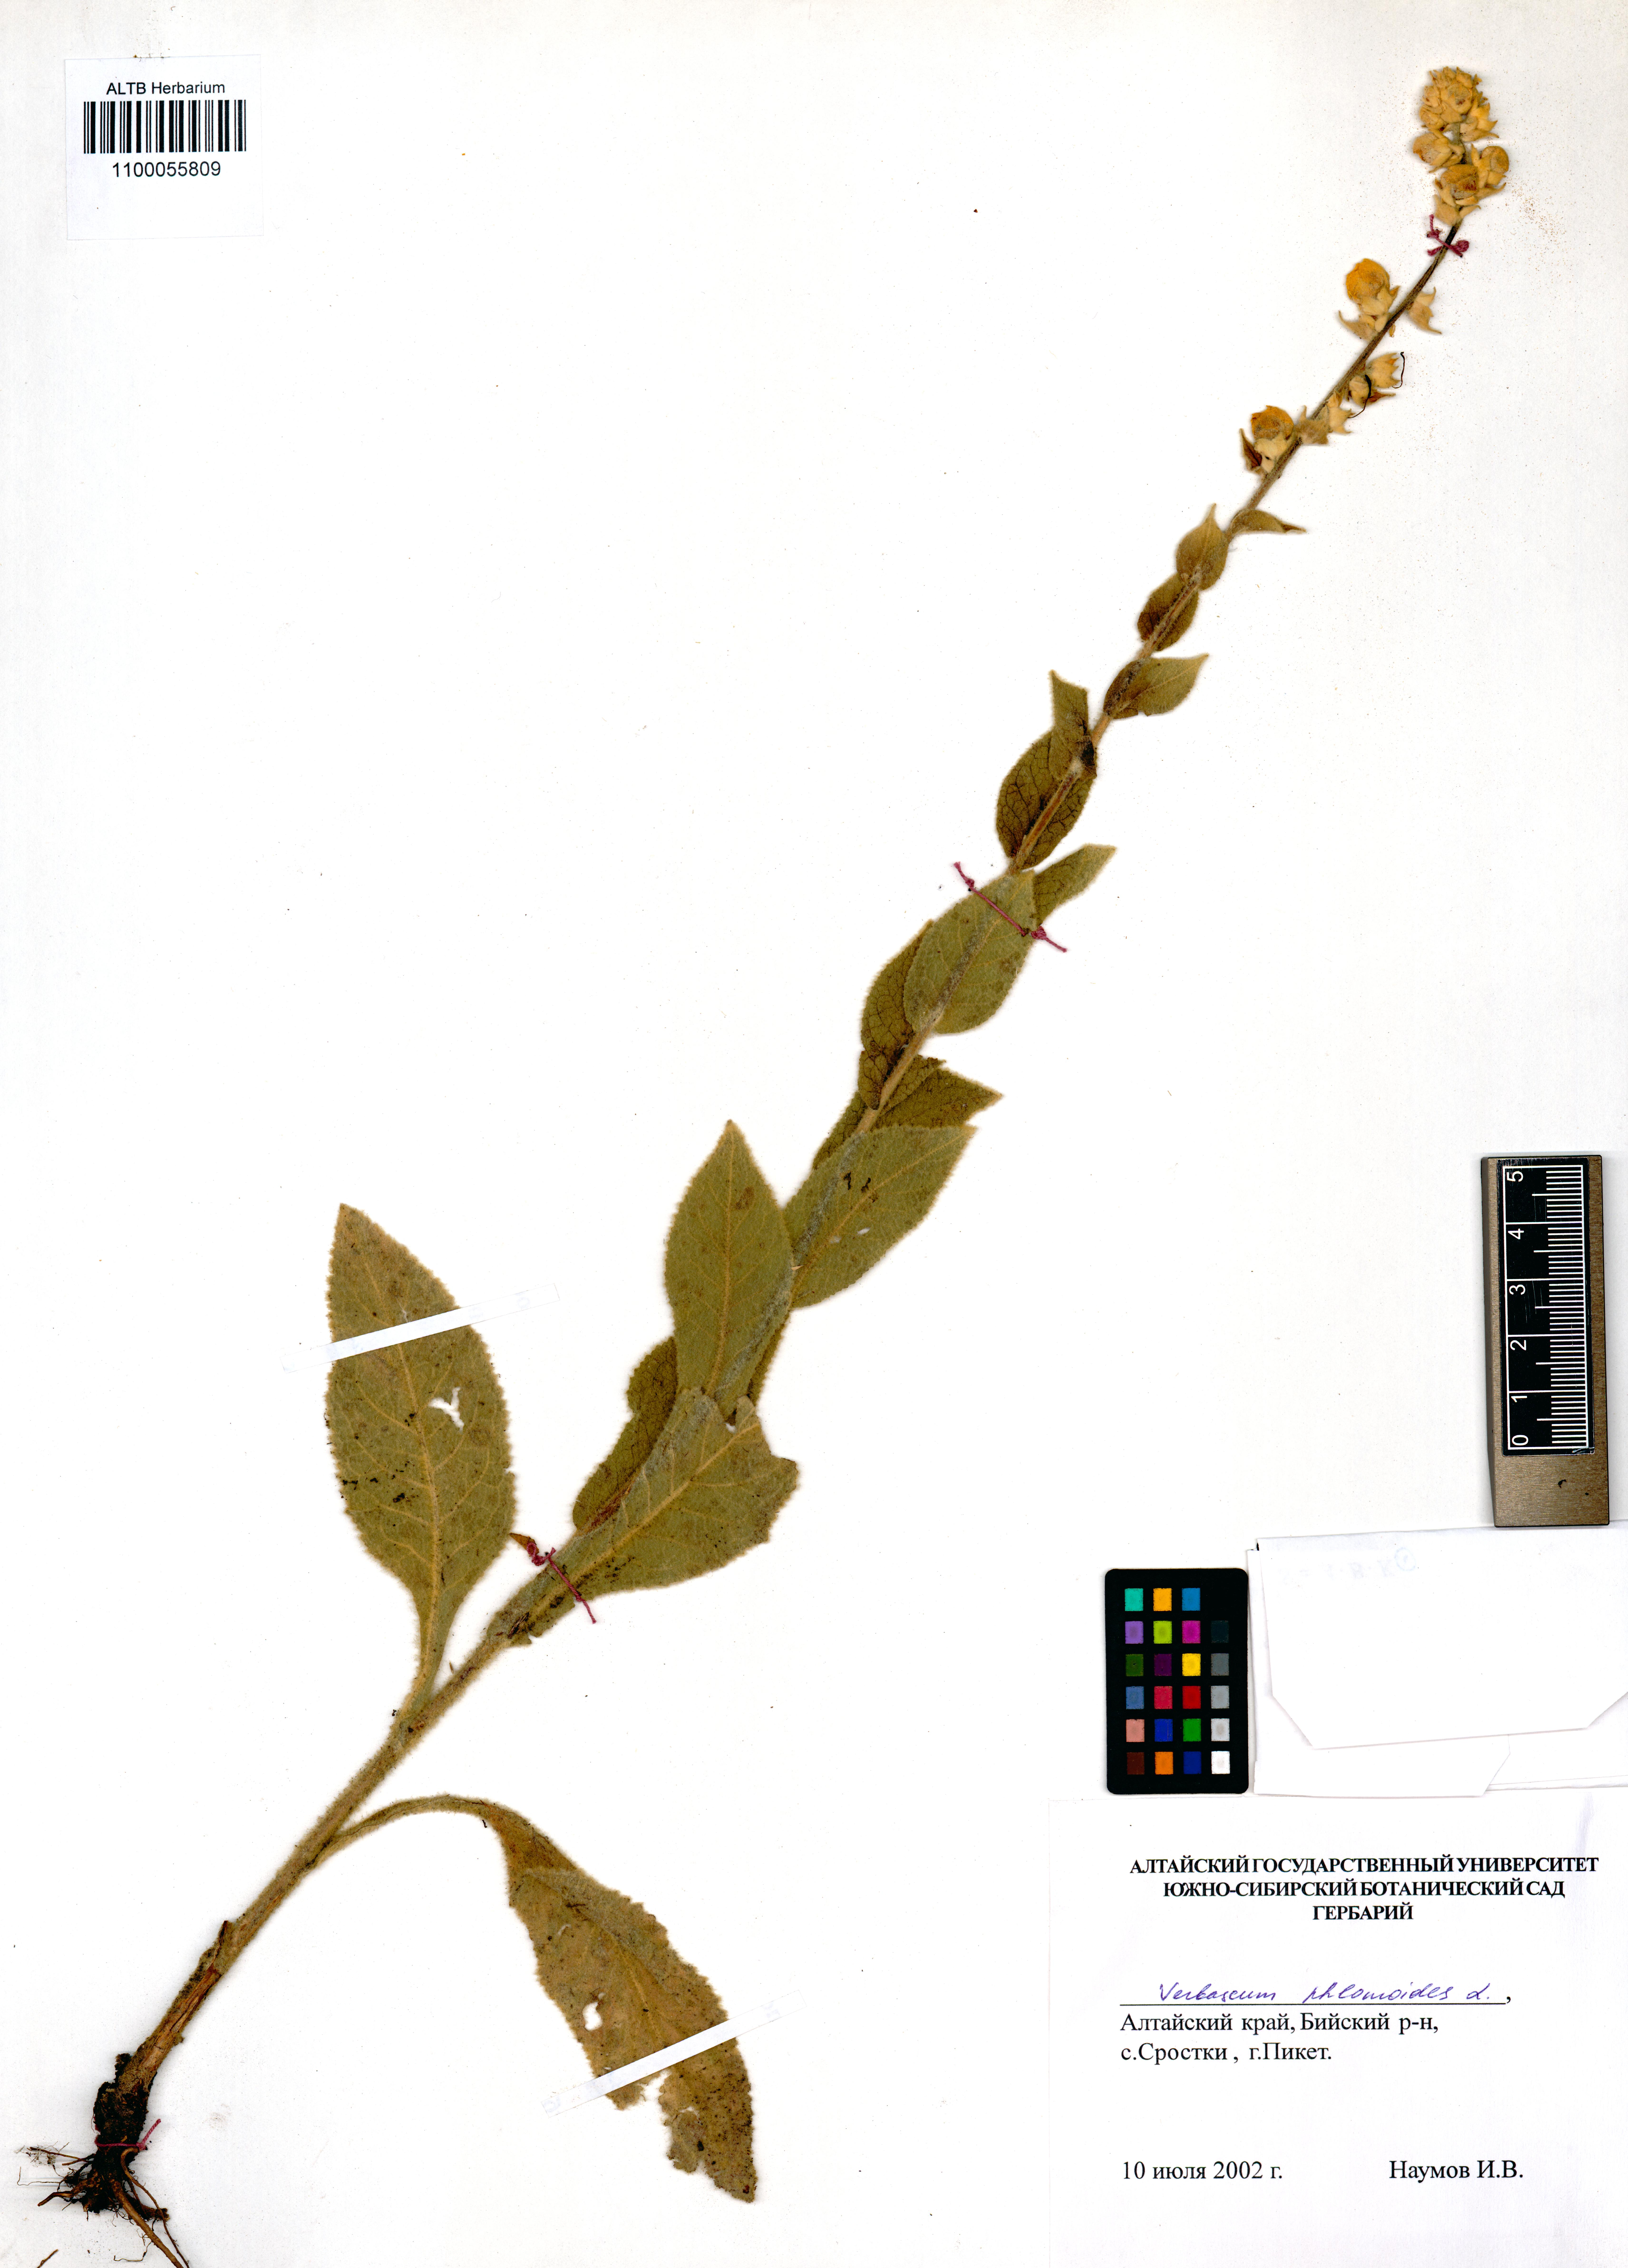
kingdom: Plantae
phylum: Tracheophyta
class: Magnoliopsida
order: Lamiales
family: Scrophulariaceae
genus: Verbascum
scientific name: Verbascum phlomoides
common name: Orange mullein
